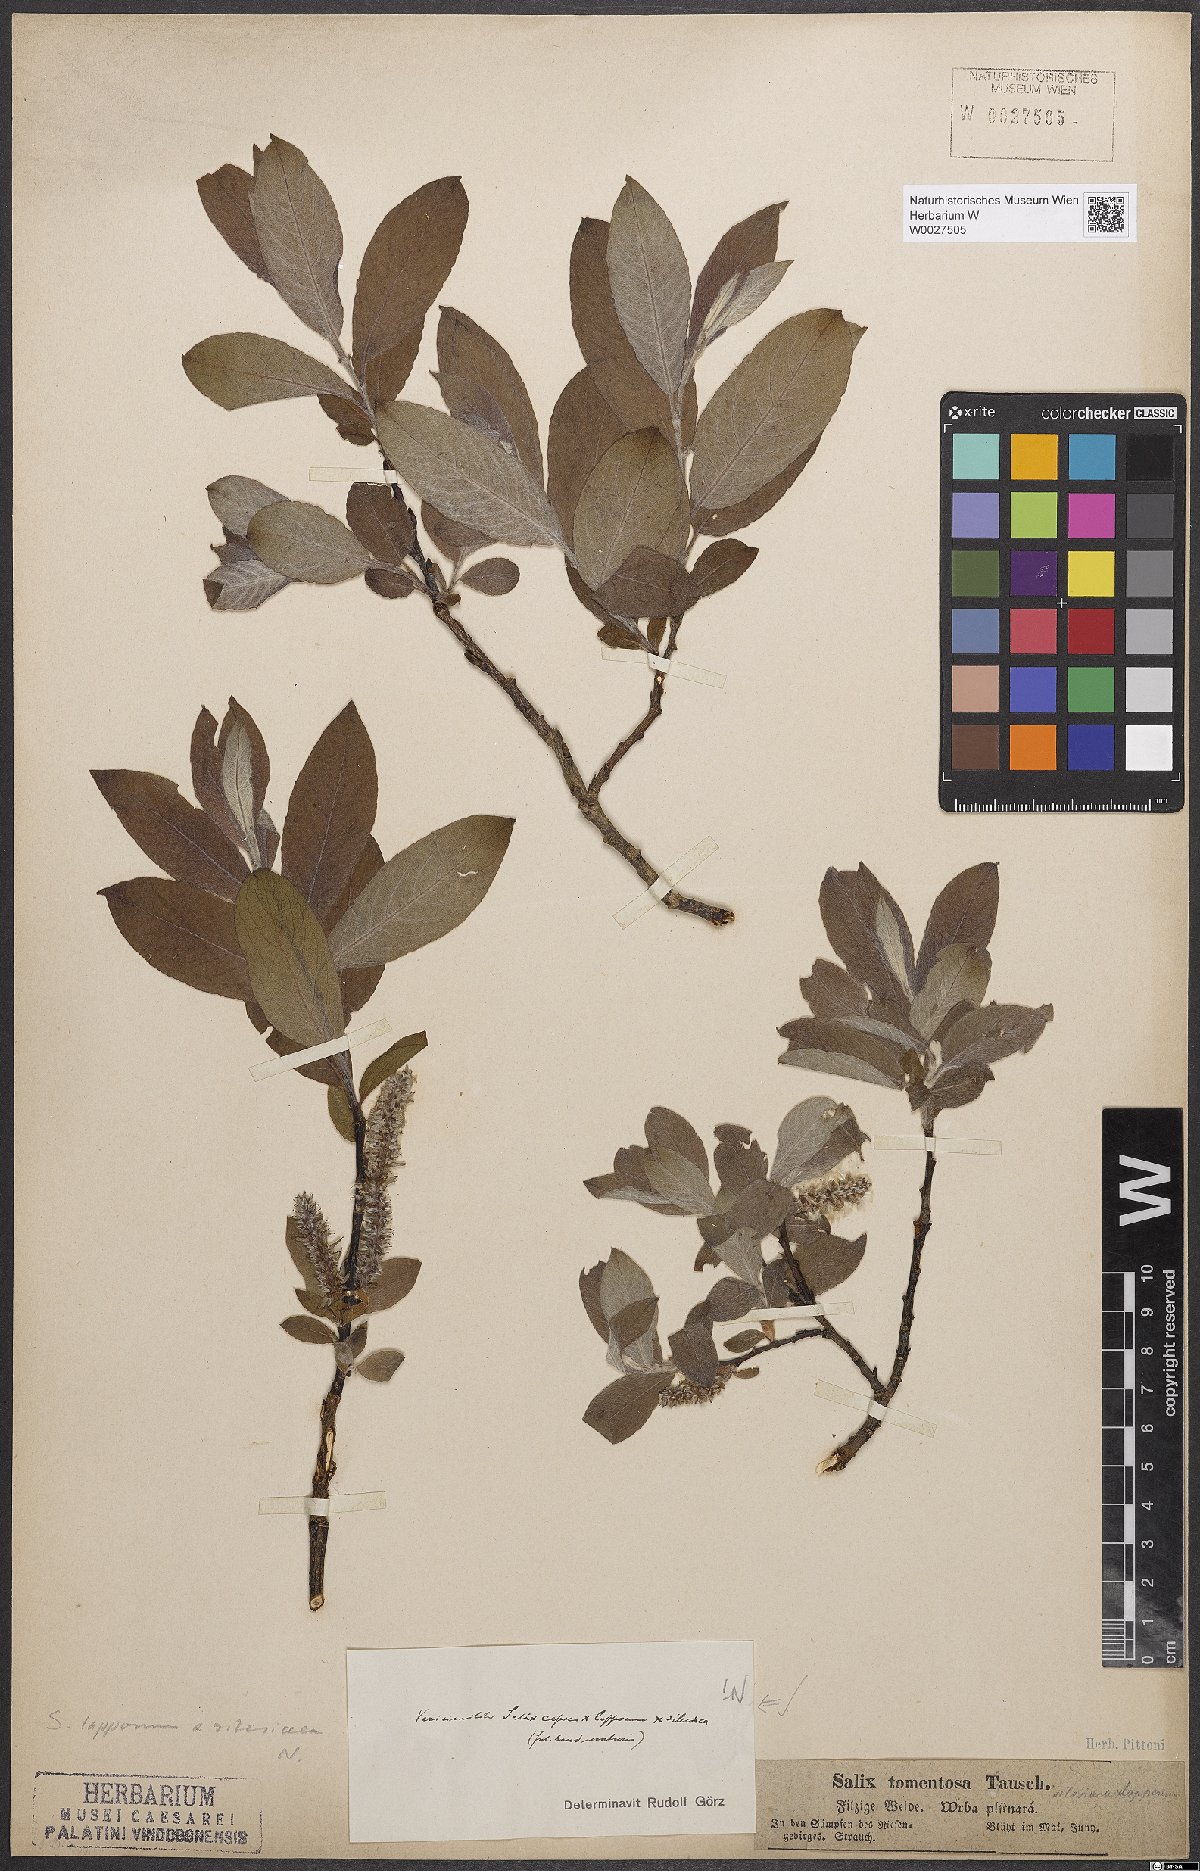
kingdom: Plantae
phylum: Tracheophyta
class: Magnoliopsida
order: Malpighiales
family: Salicaceae
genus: Salix
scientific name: Salix
